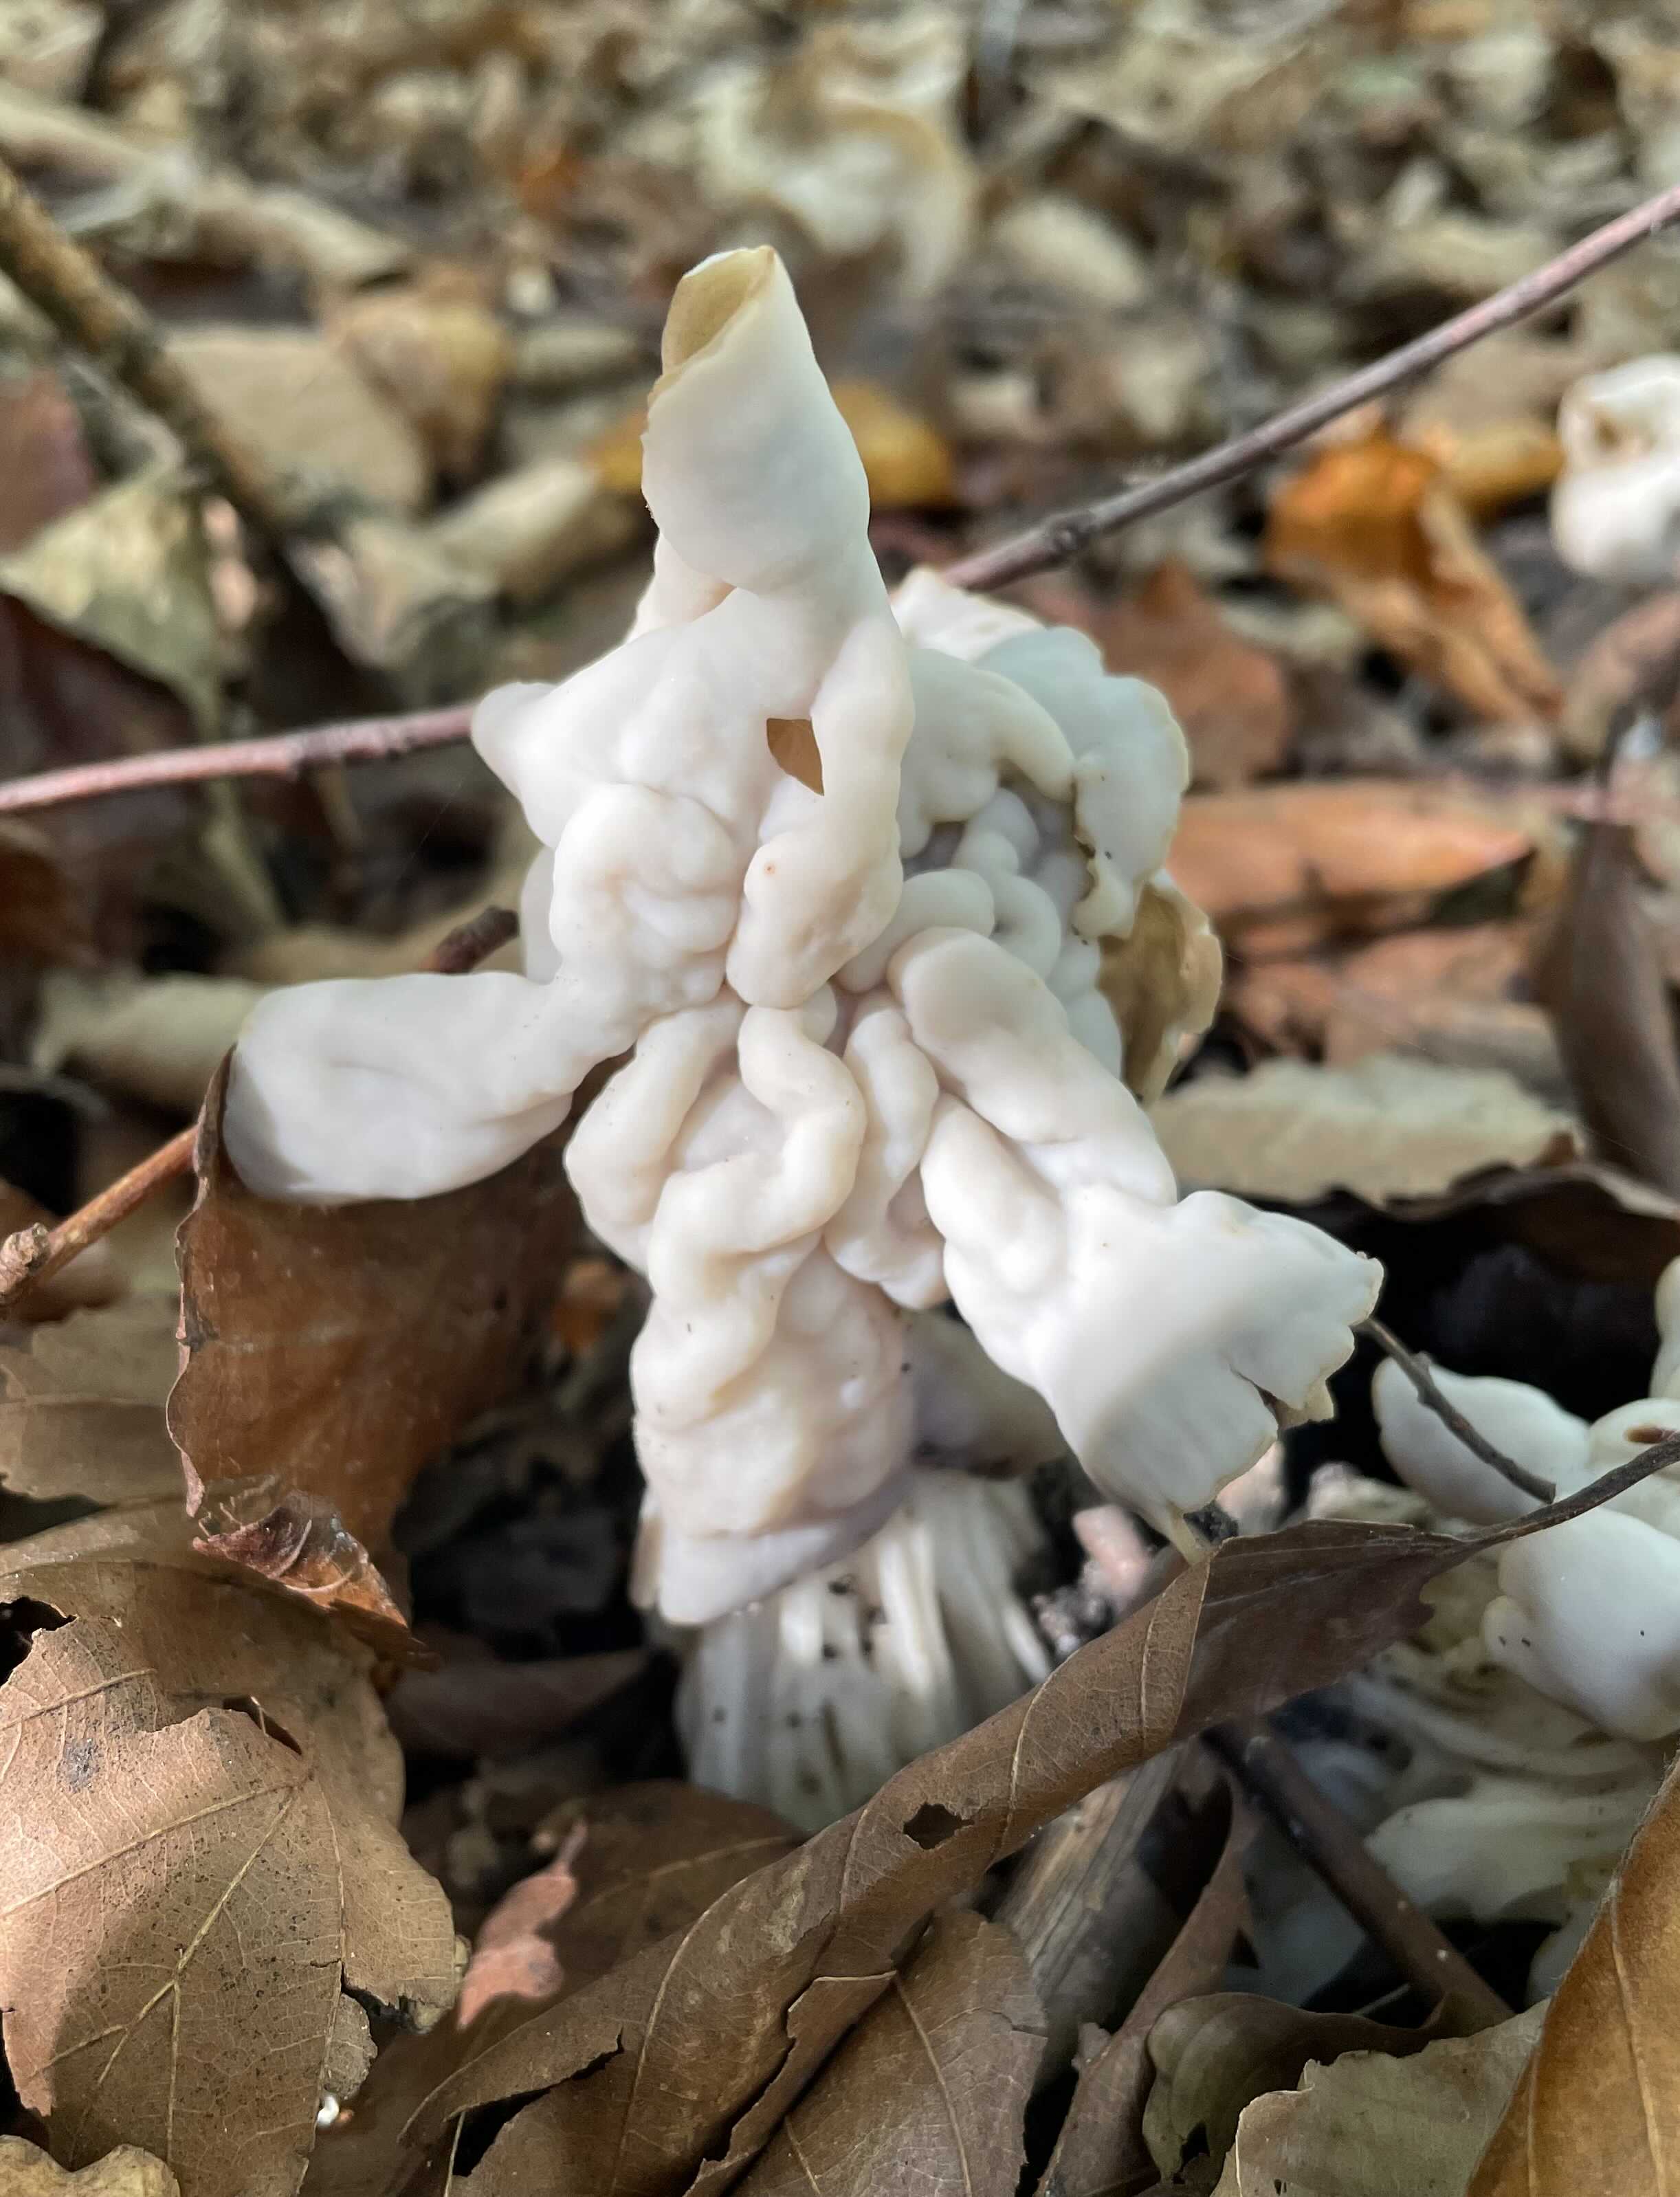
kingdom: Fungi
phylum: Ascomycota
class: Pezizomycetes
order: Pezizales
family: Helvellaceae
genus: Helvella
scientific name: Helvella crispa
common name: kruset foldhat
